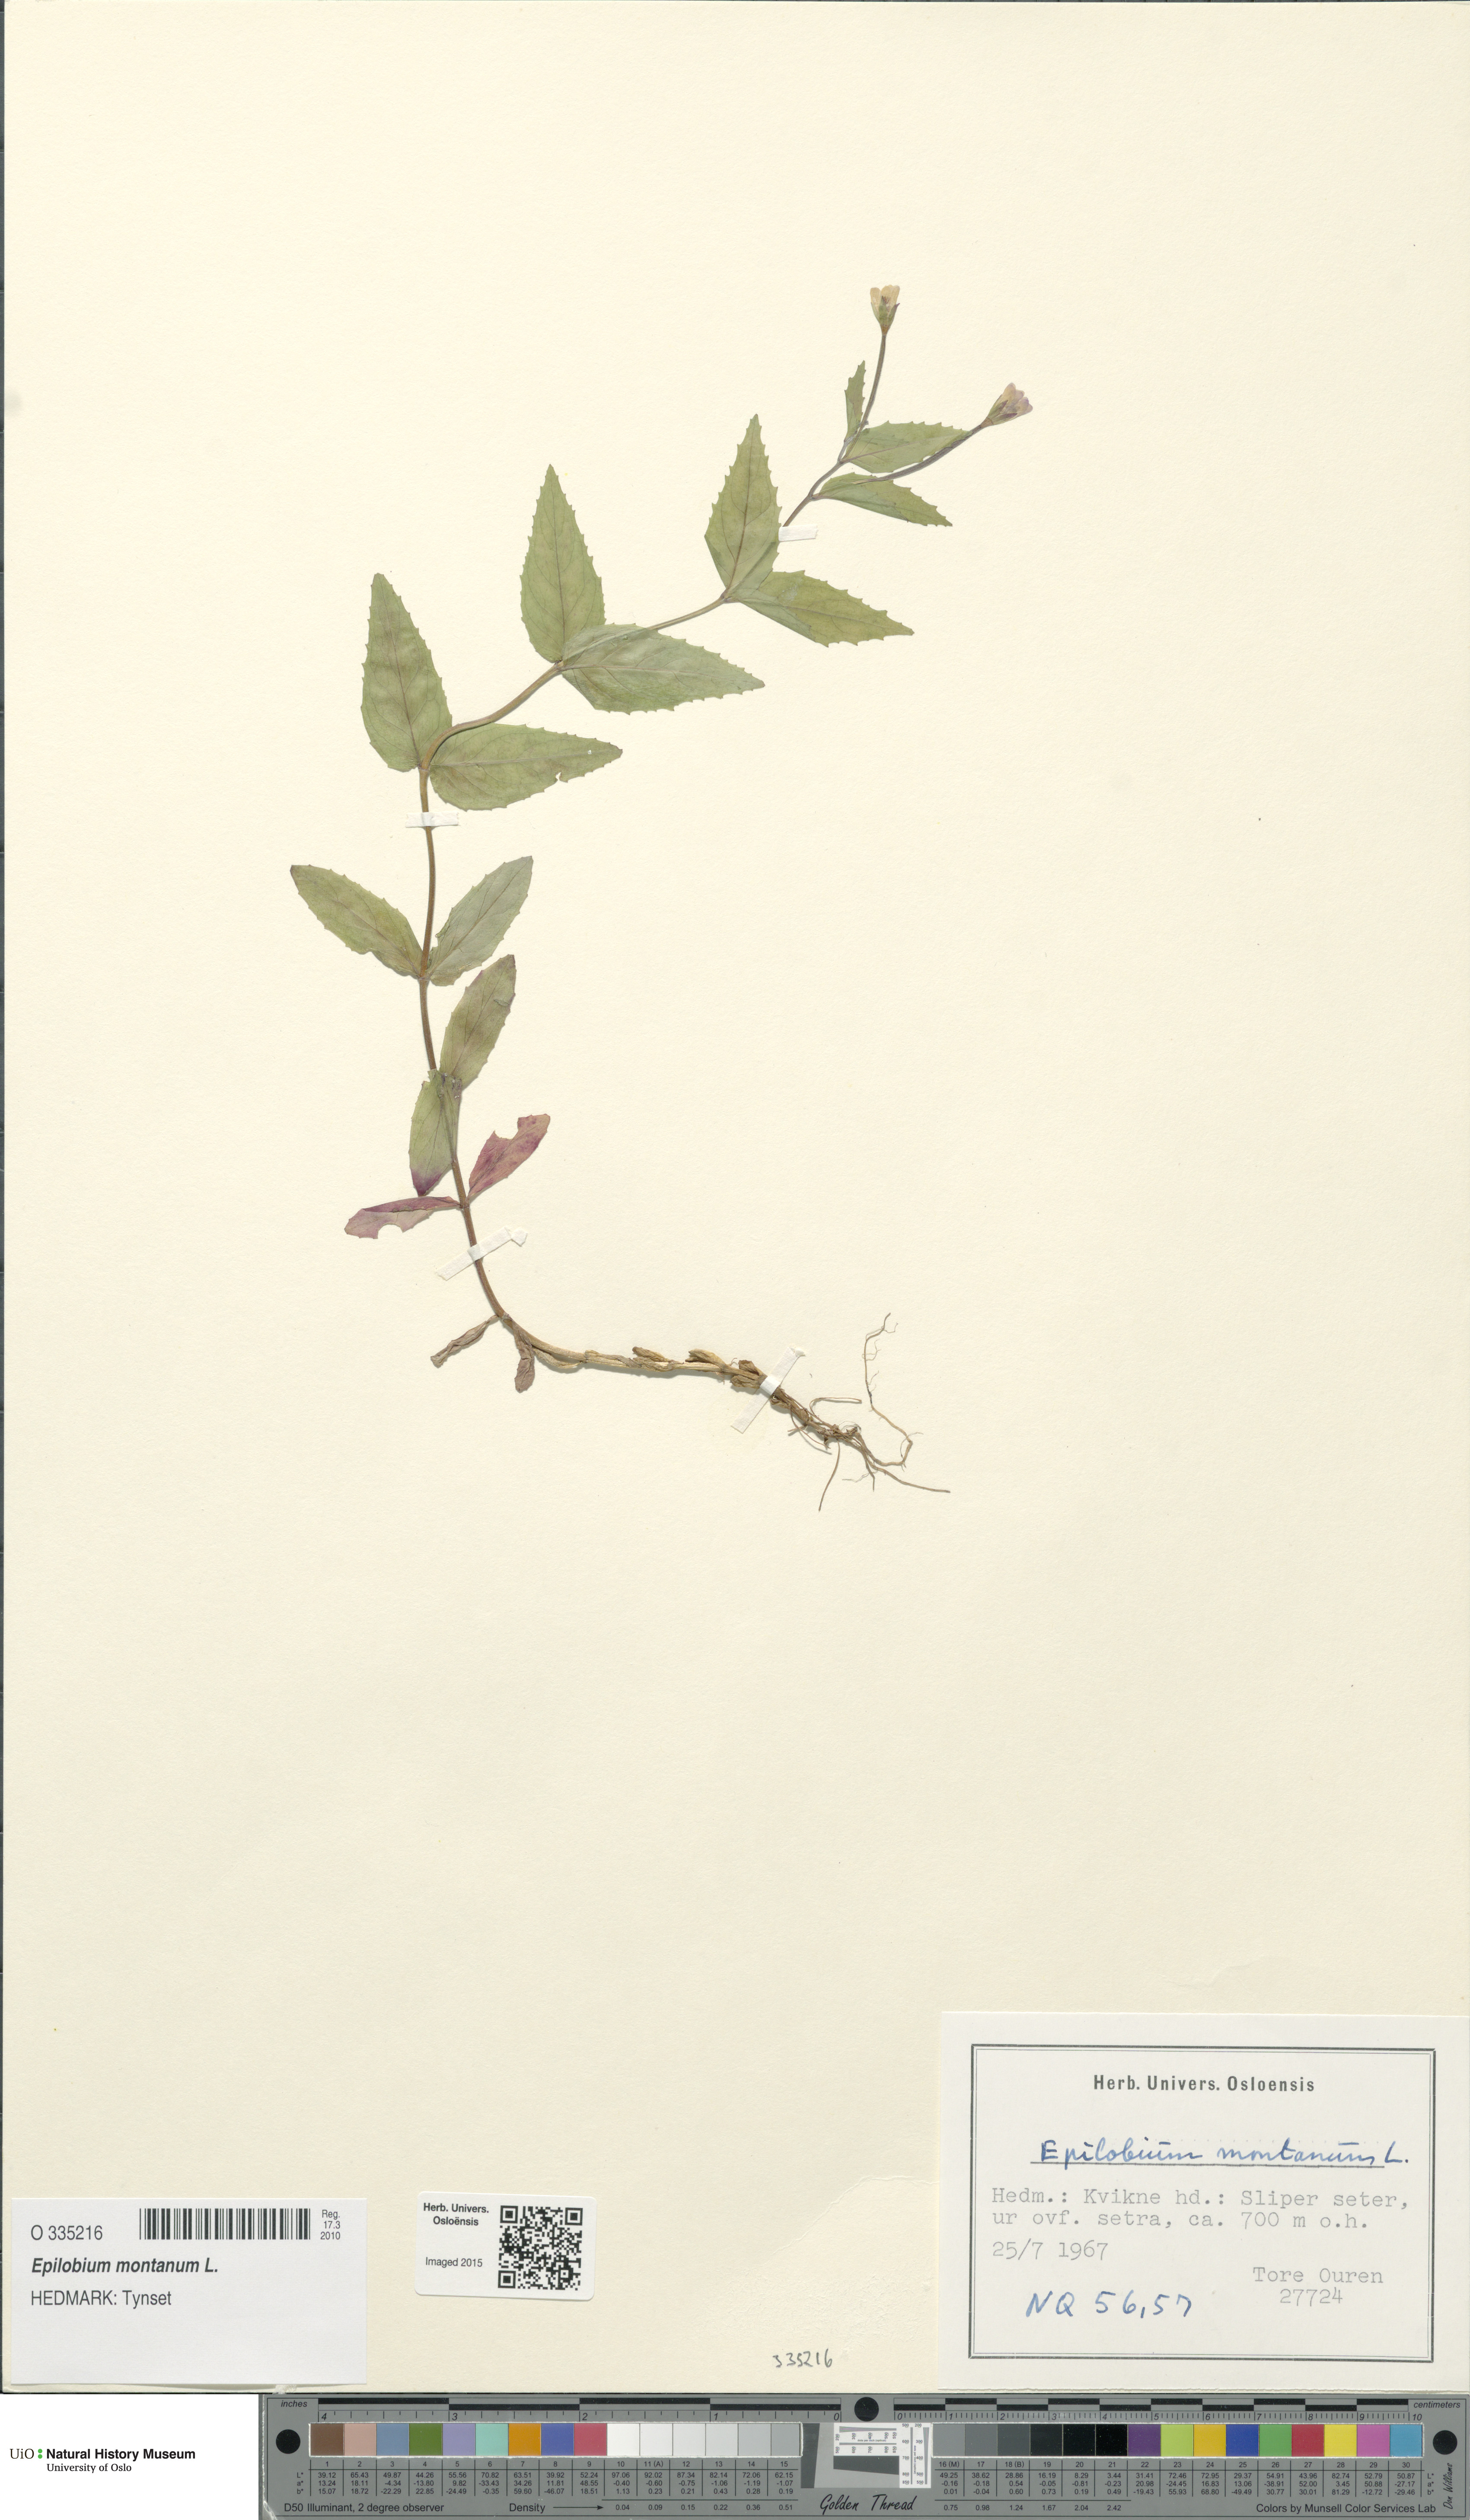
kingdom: Plantae
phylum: Tracheophyta
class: Magnoliopsida
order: Myrtales
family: Onagraceae
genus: Epilobium
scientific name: Epilobium montanum
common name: Broad-leaved willowherb
